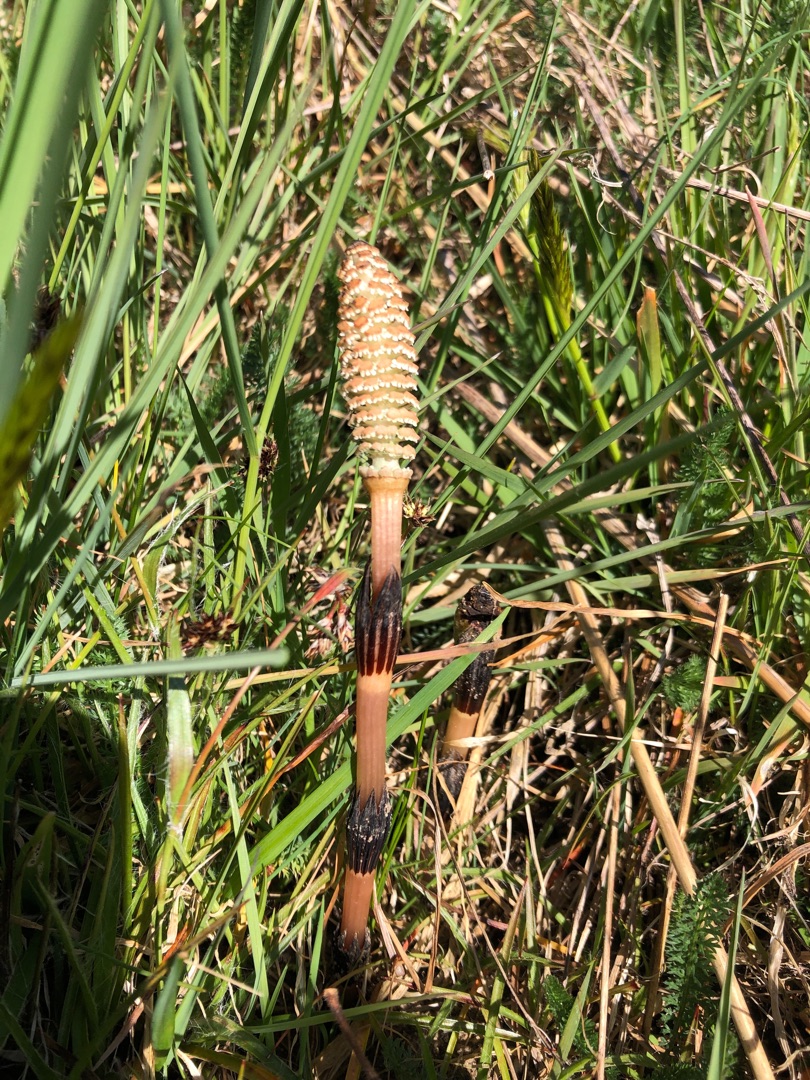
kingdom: Plantae
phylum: Tracheophyta
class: Polypodiopsida
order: Equisetales
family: Equisetaceae
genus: Equisetum
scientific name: Equisetum arvense
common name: Ager-padderok
